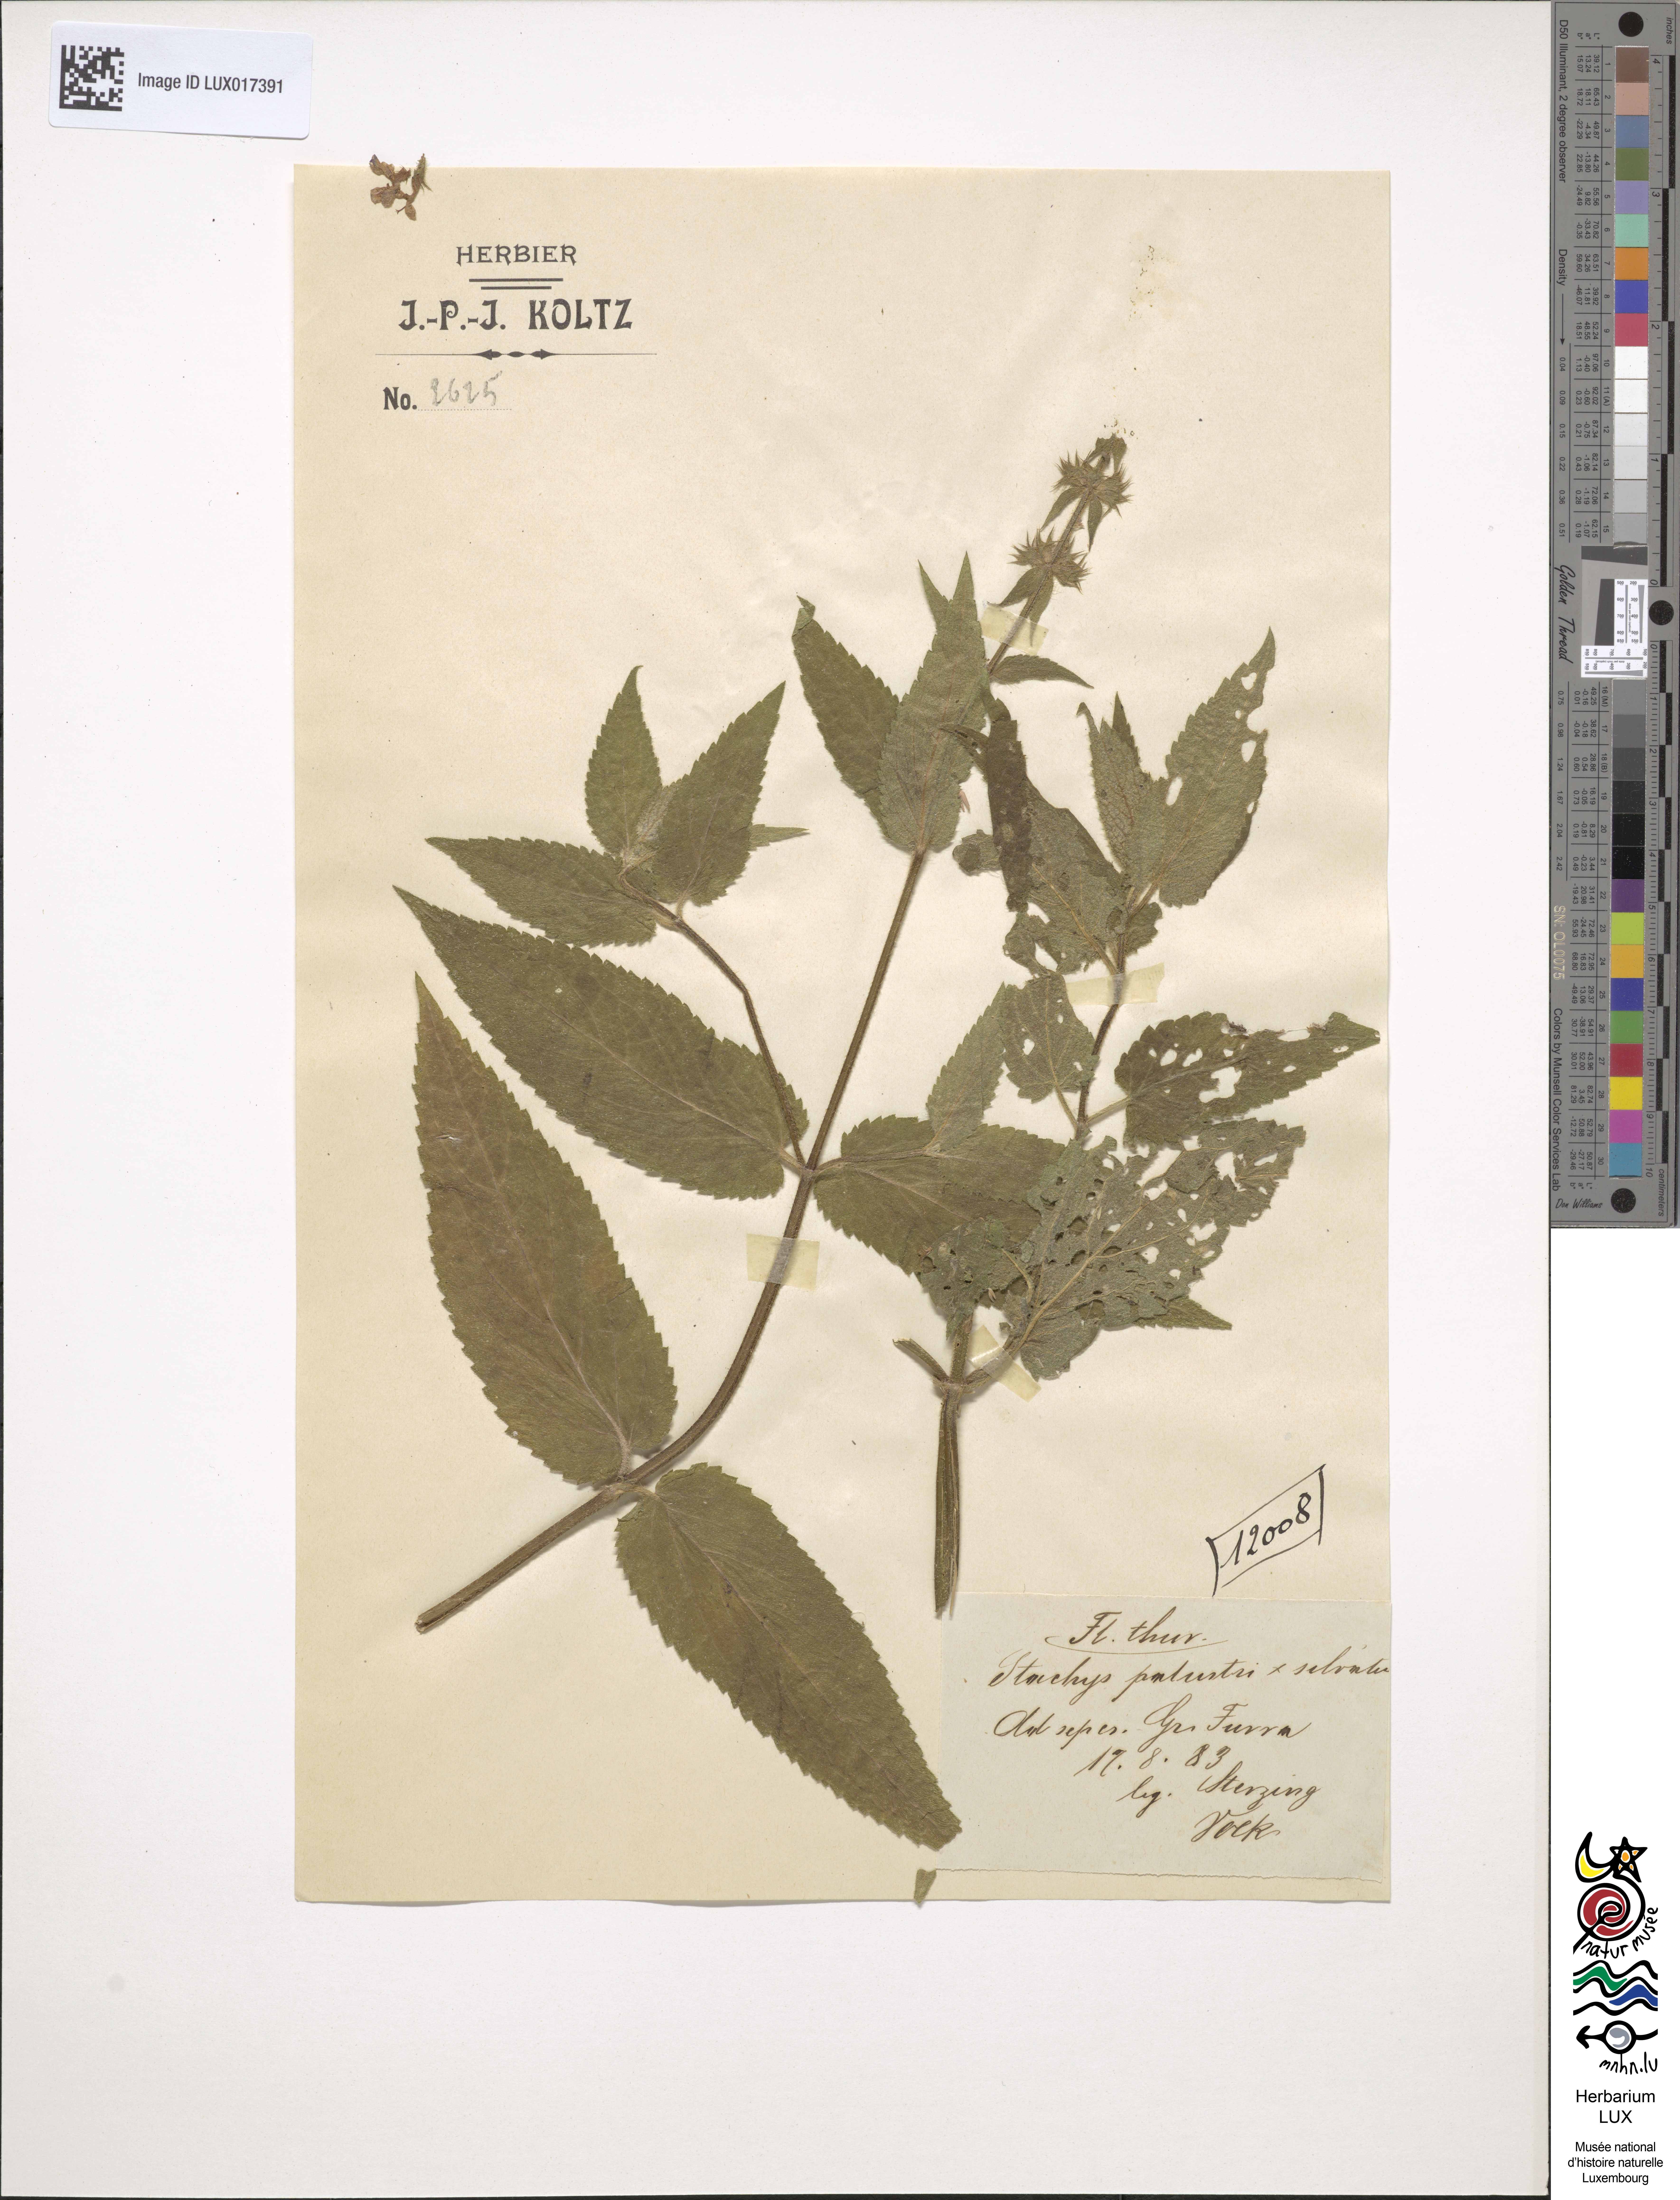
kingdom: Plantae
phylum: Tracheophyta
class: Magnoliopsida
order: Lamiales
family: Lamiaceae
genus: Stachys
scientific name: Stachys ambigua
